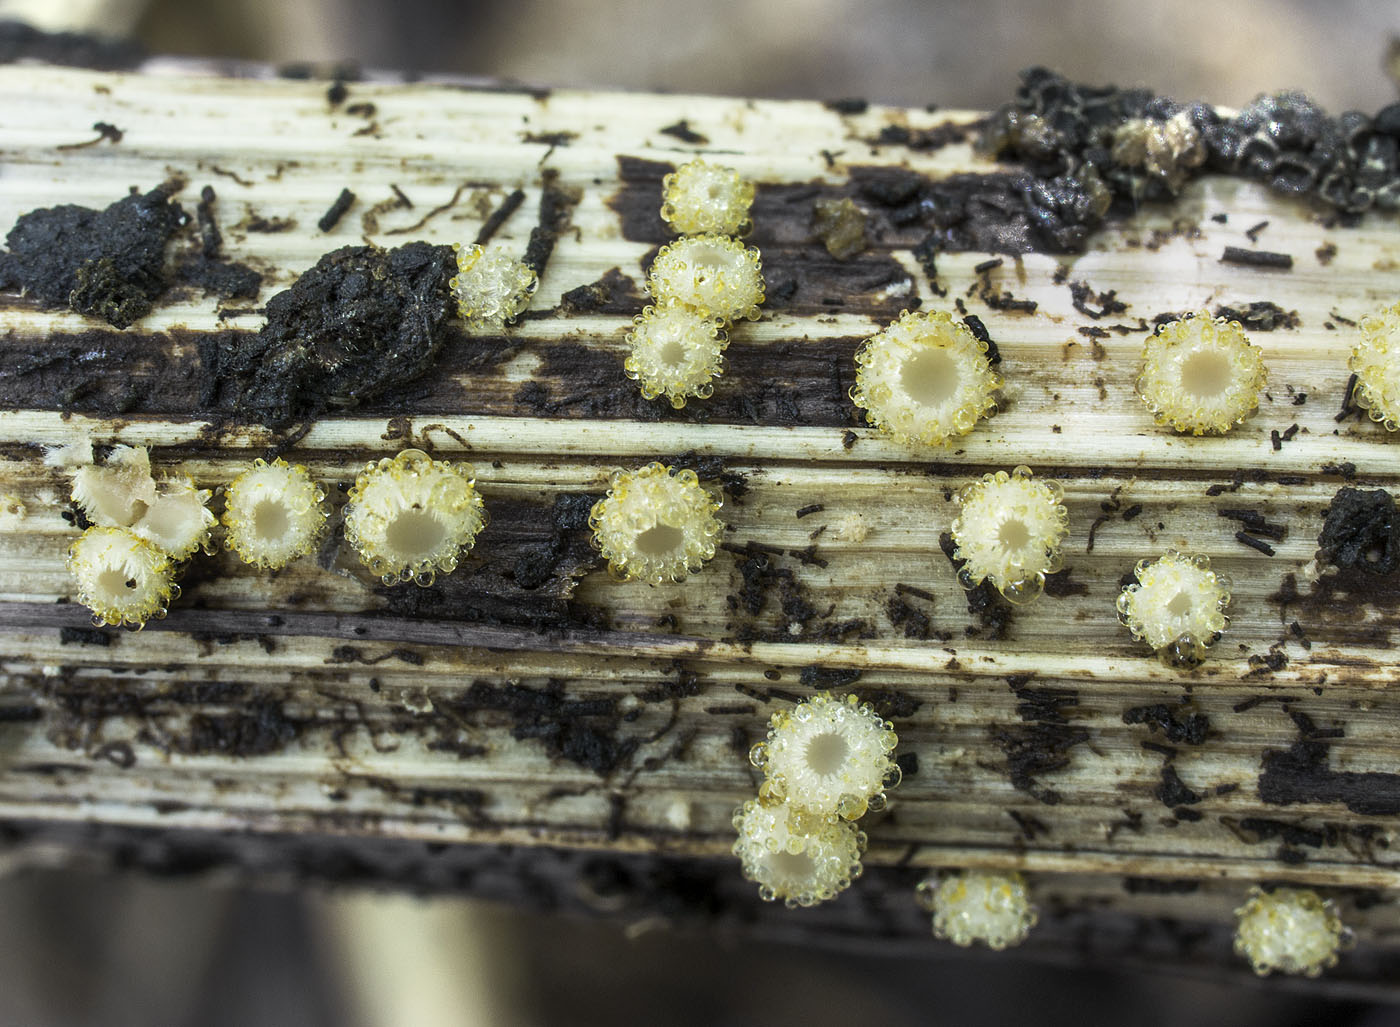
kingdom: Fungi
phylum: Ascomycota
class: Leotiomycetes
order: Helotiales
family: Lachnaceae
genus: Trichopeziza
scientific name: Trichopeziza discolor
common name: langsporet frynseskive
